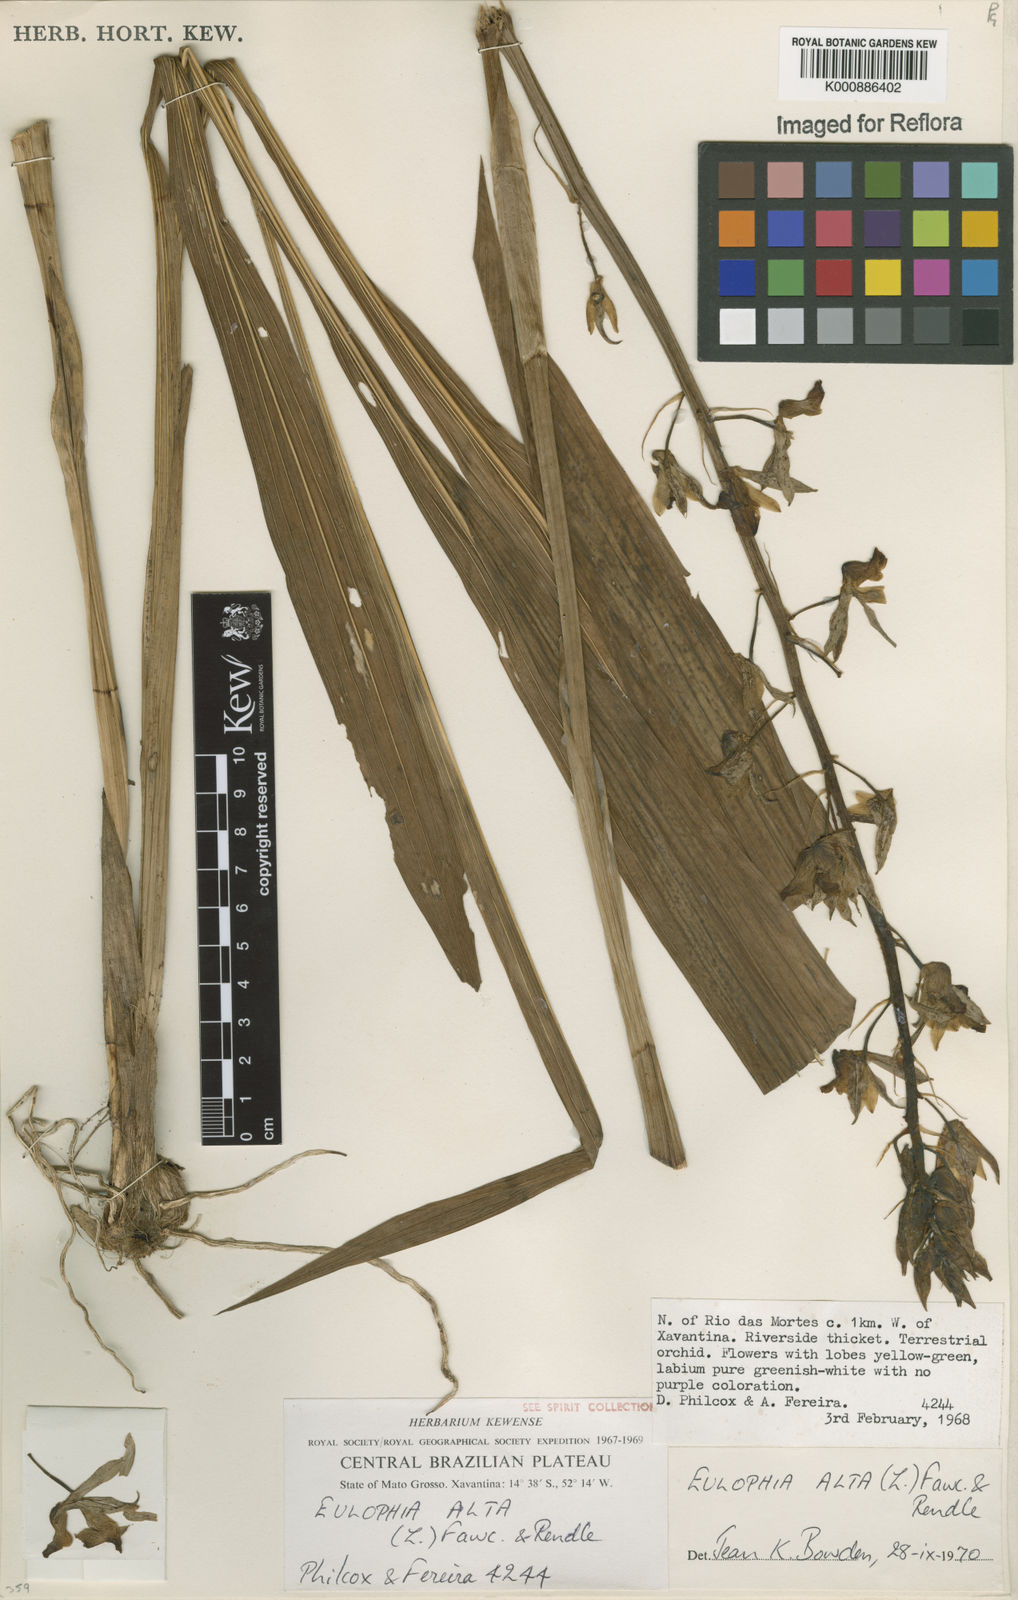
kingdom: Plantae
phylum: Tracheophyta
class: Liliopsida
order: Asparagales
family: Orchidaceae
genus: Eulophia
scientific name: Eulophia alta
